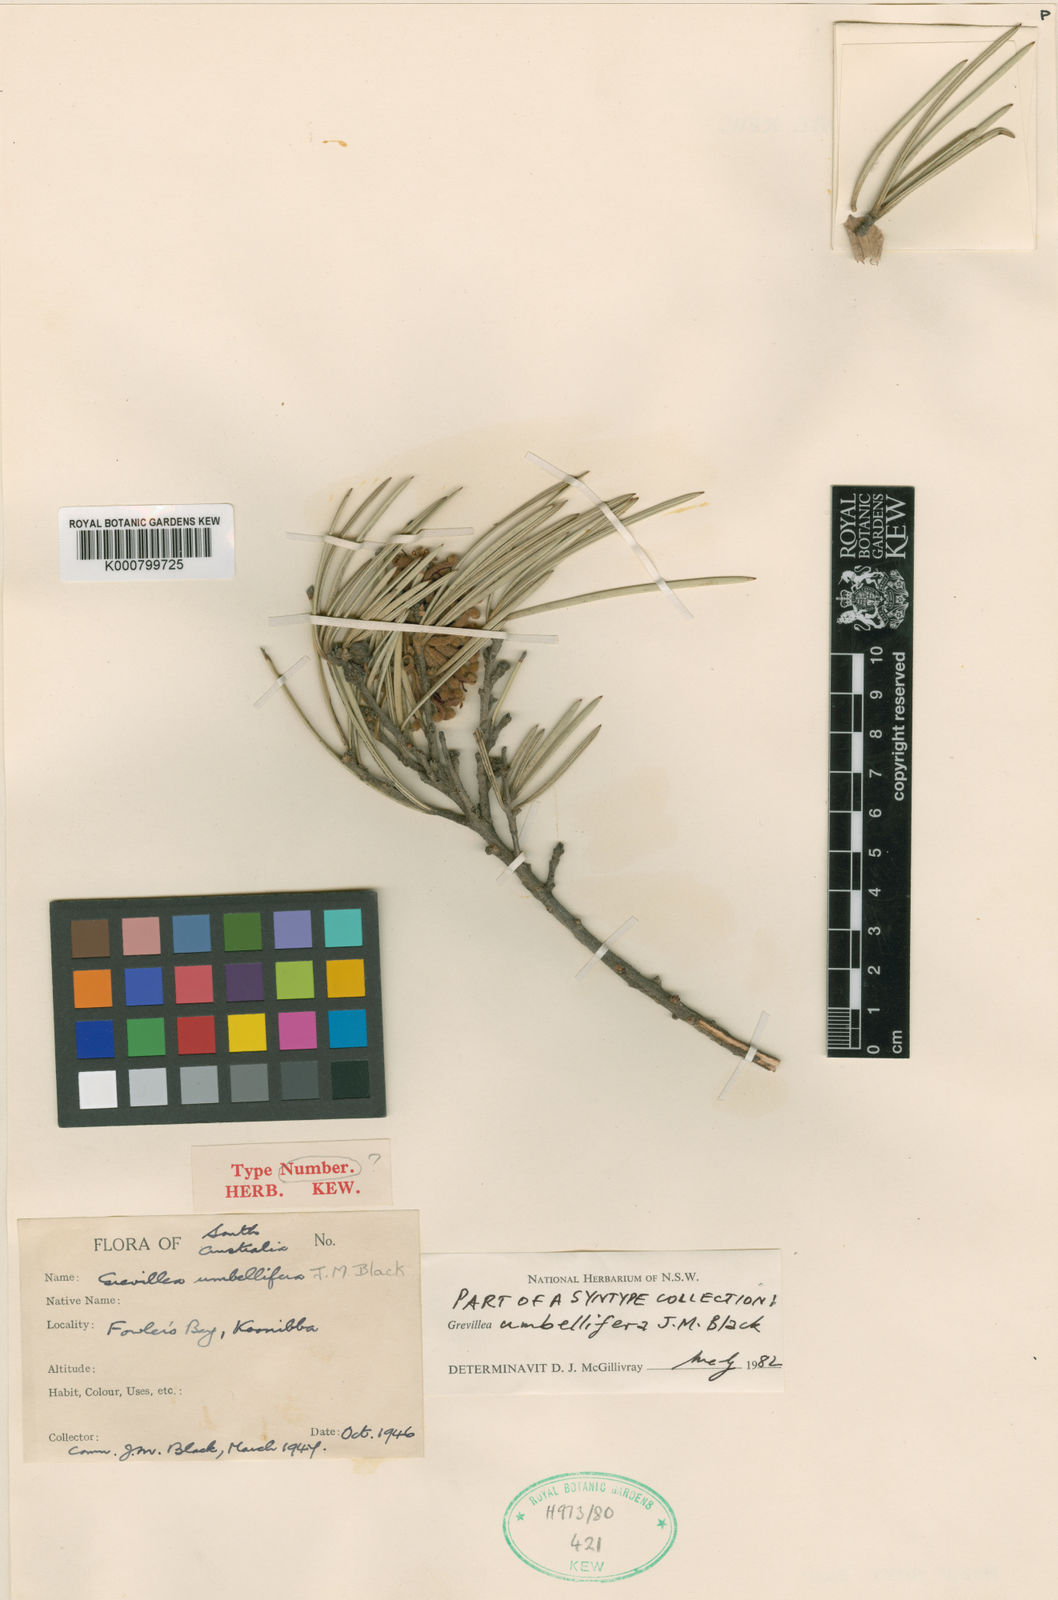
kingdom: Plantae
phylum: Tracheophyta
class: Magnoliopsida
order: Proteales
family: Proteaceae
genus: Grevillea
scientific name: Grevillea sarissa
